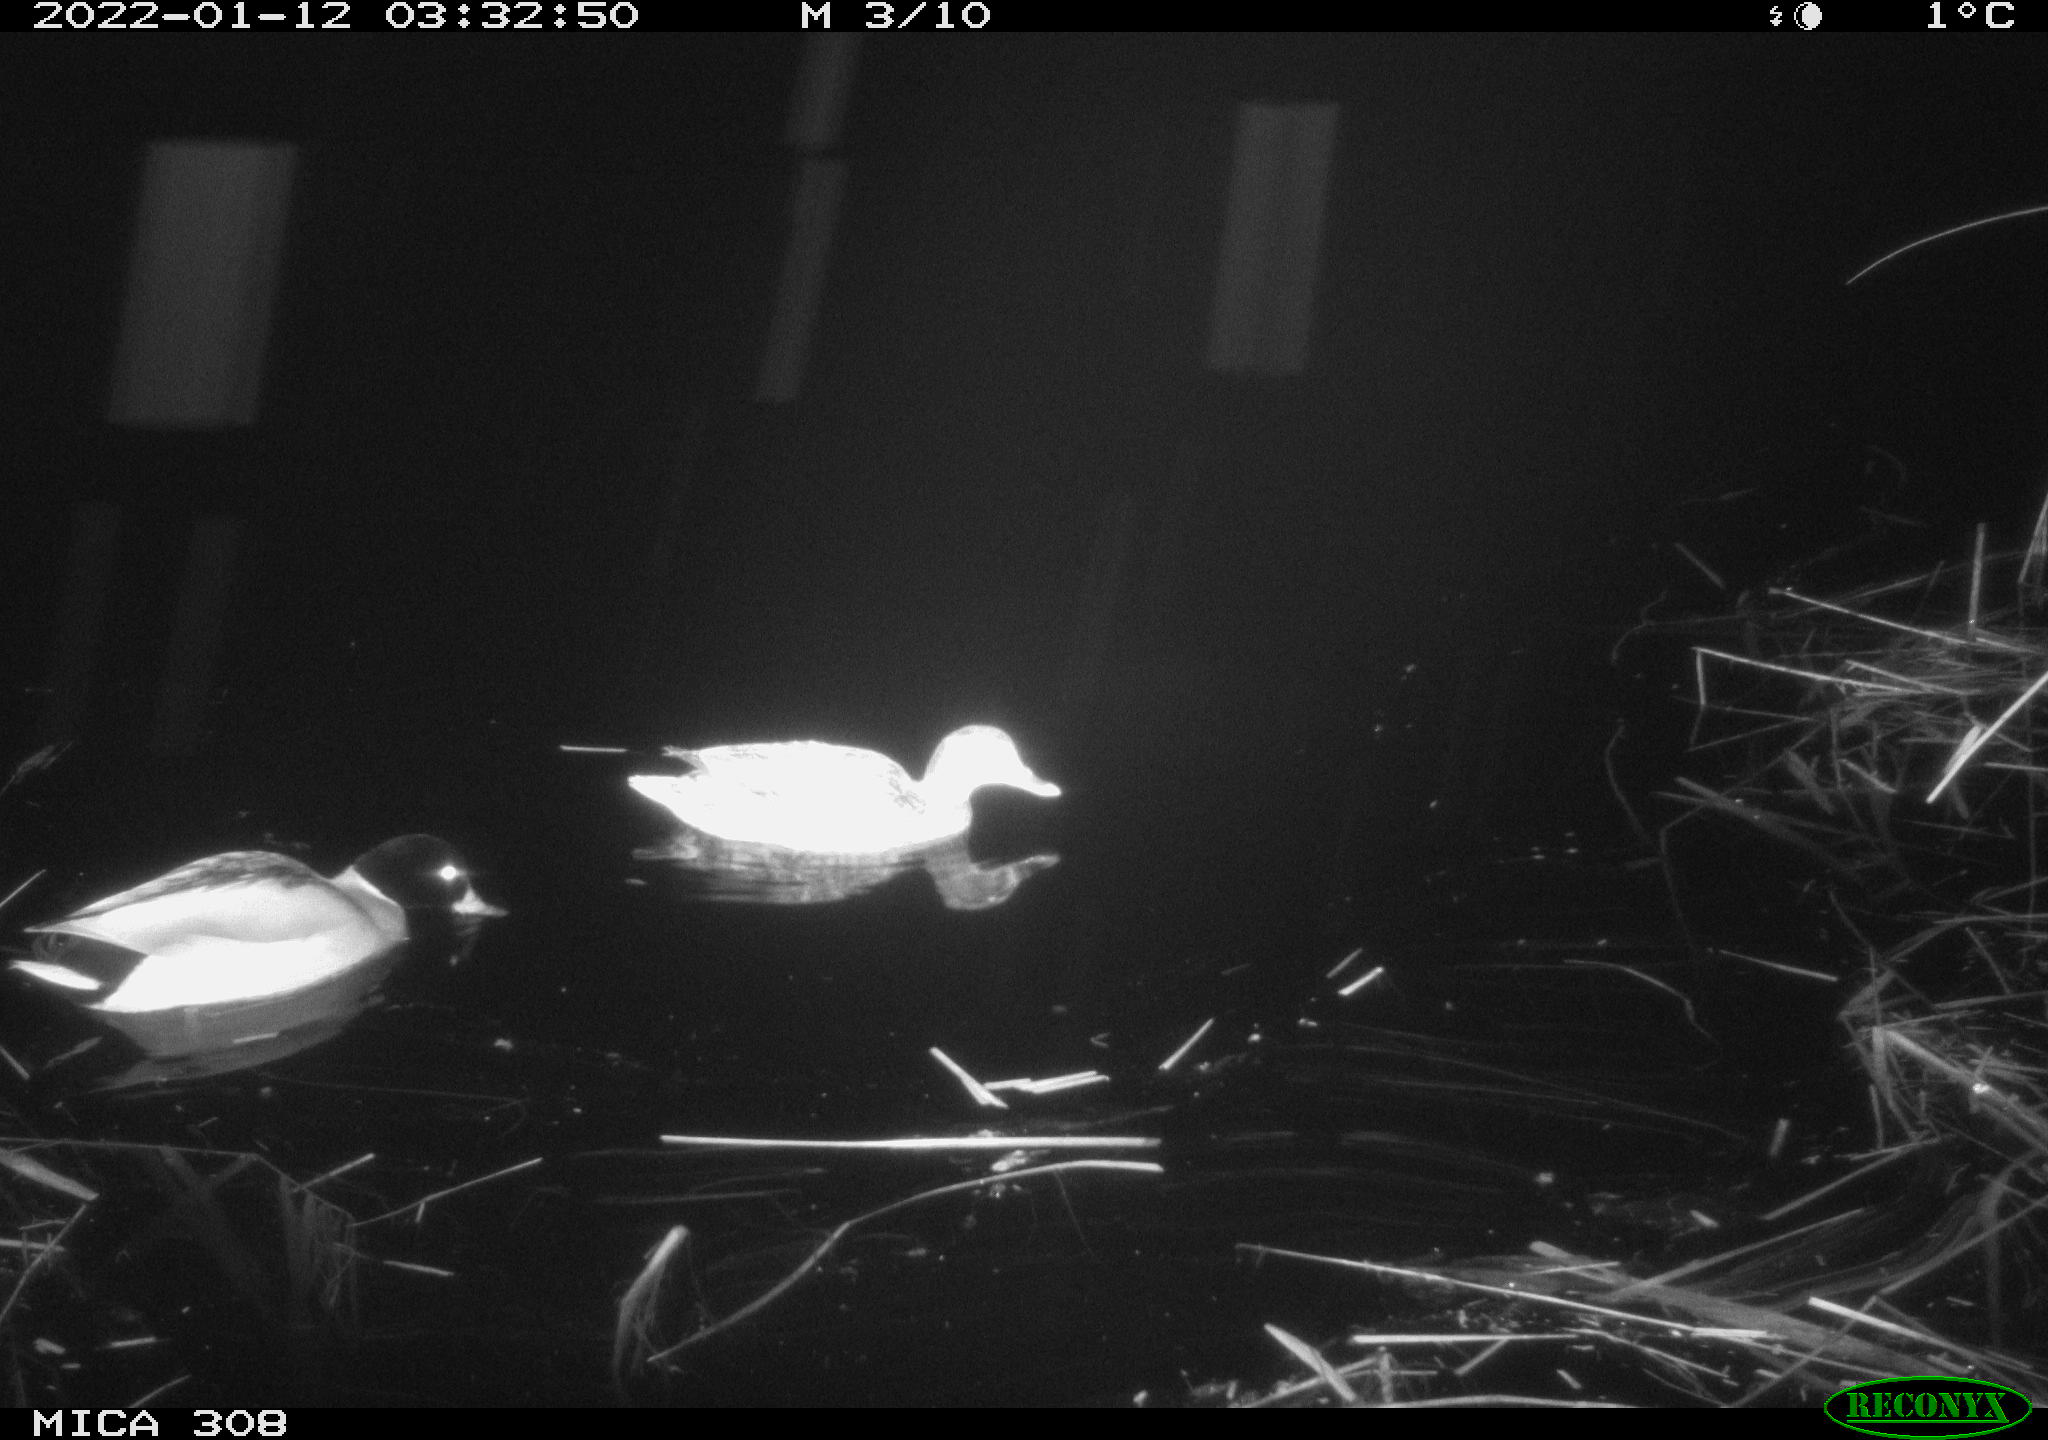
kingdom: Animalia
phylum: Chordata
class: Aves
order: Anseriformes
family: Anatidae
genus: Anas
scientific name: Anas
